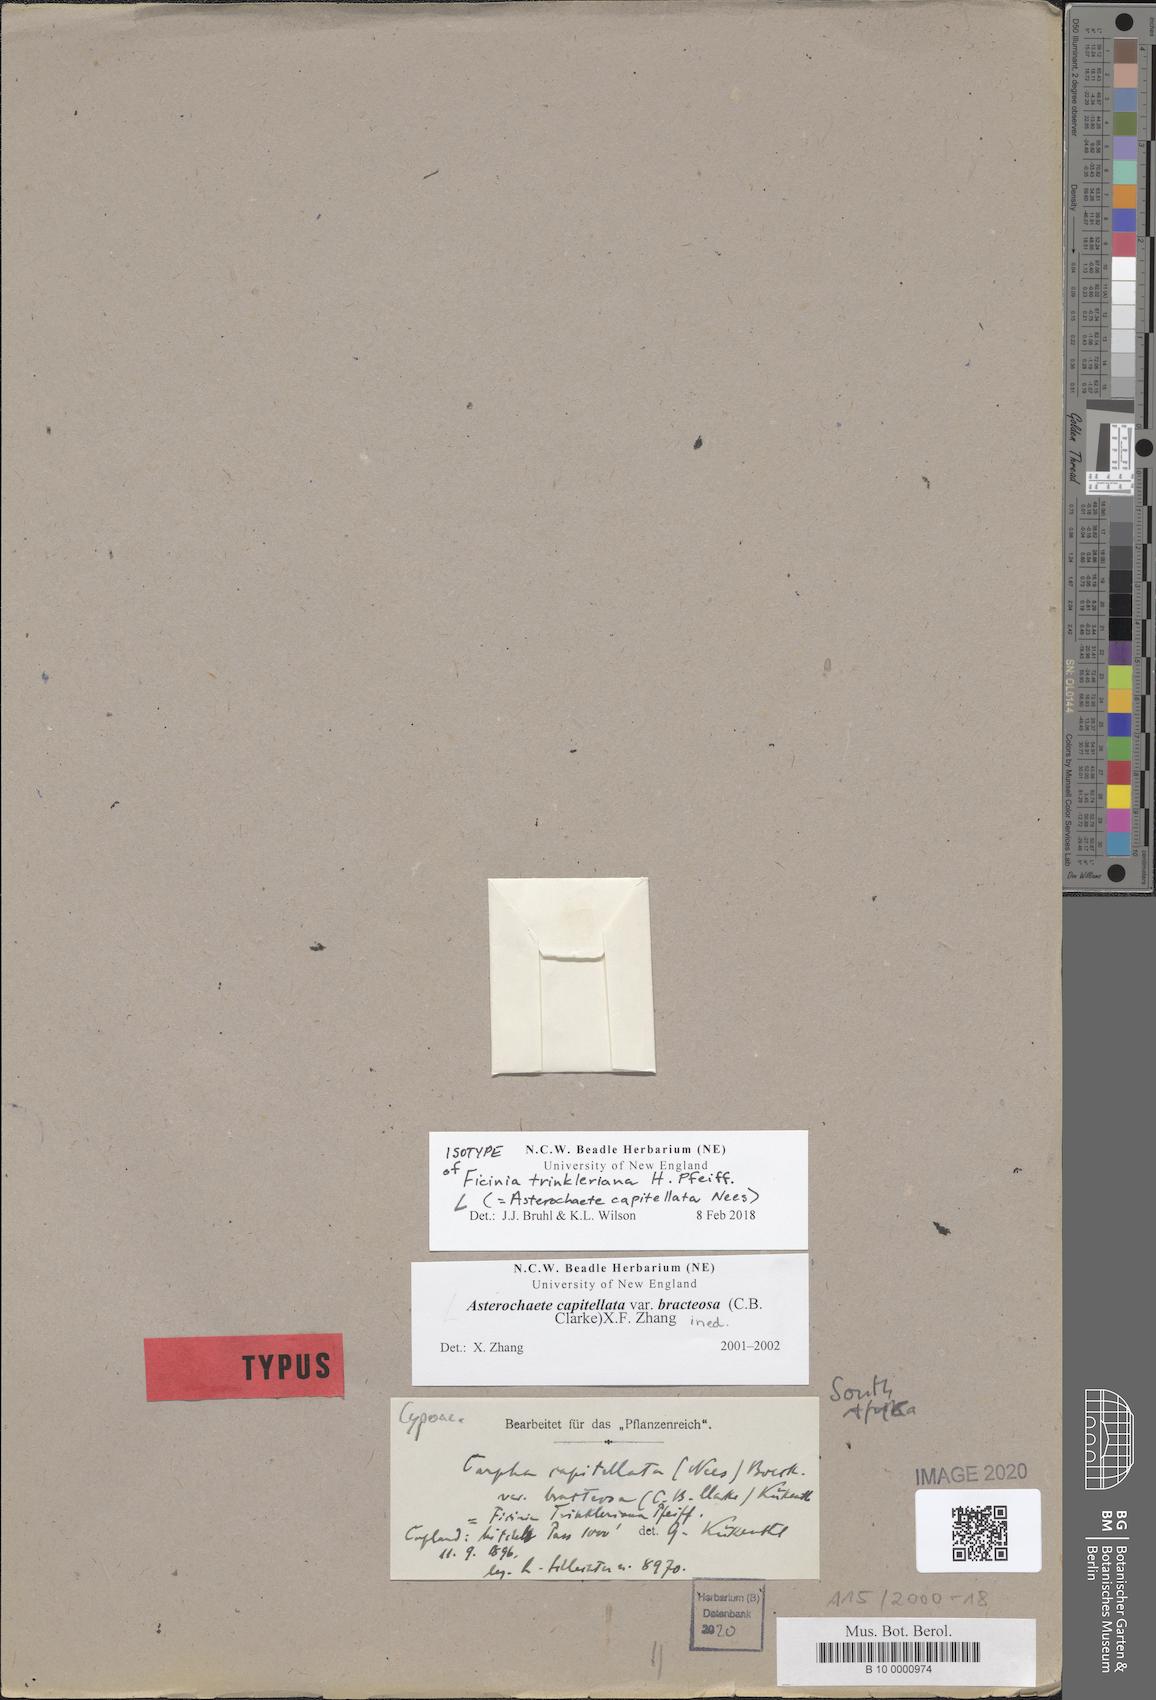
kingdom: Plantae
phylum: Tracheophyta
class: Liliopsida
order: Poales
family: Cyperaceae
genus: Carpha
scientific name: Carpha capitellata
